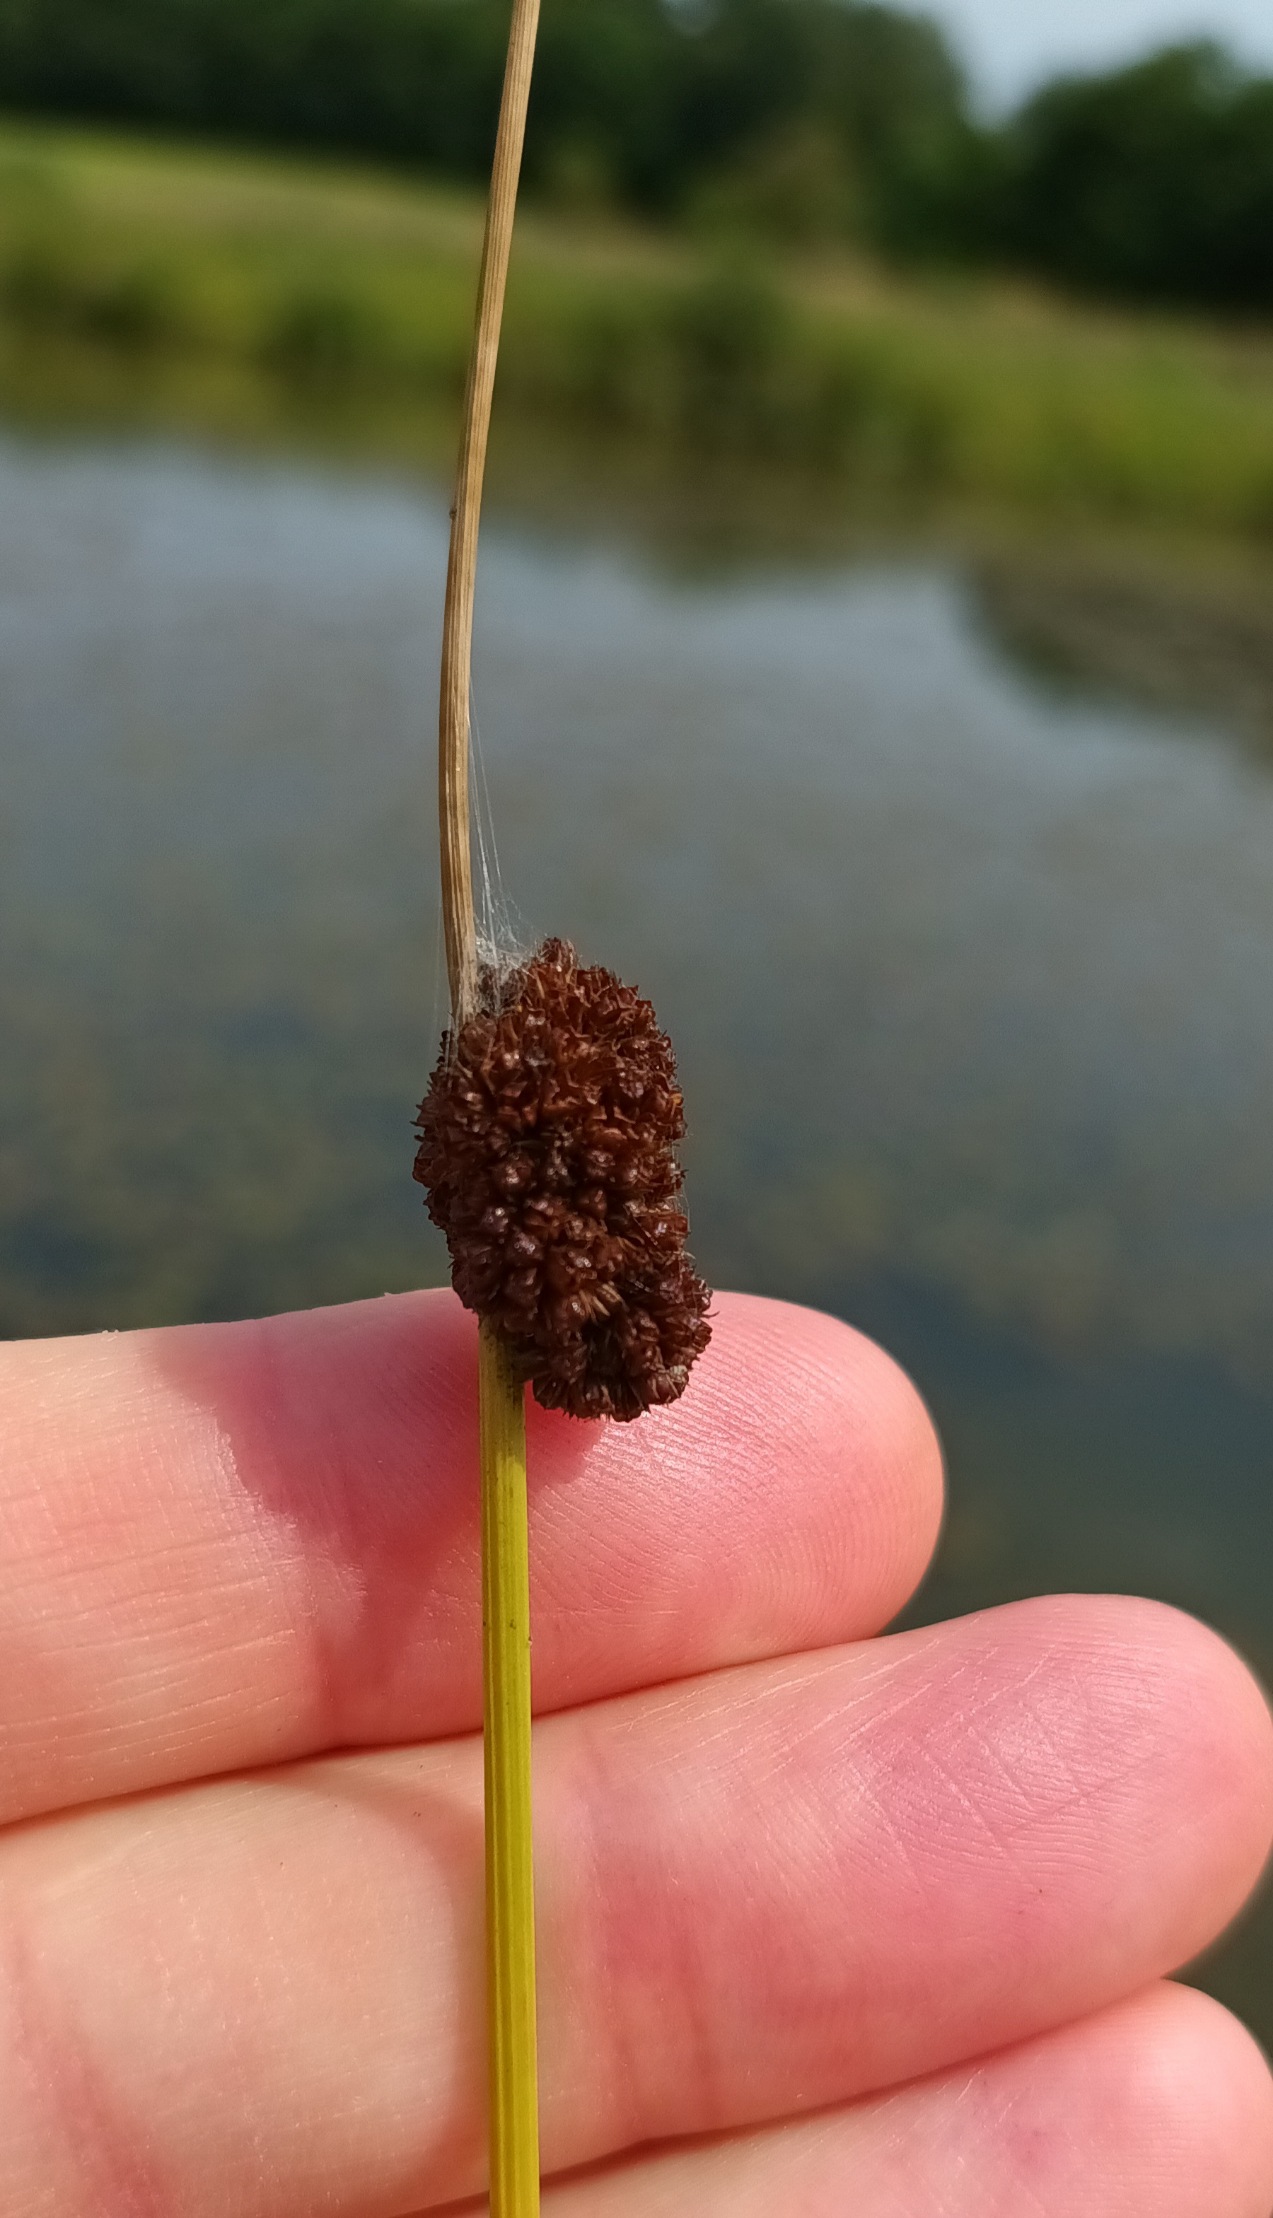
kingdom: Plantae
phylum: Tracheophyta
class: Liliopsida
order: Poales
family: Juncaceae
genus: Juncus
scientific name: Juncus conglomeratus
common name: Knop-siv
